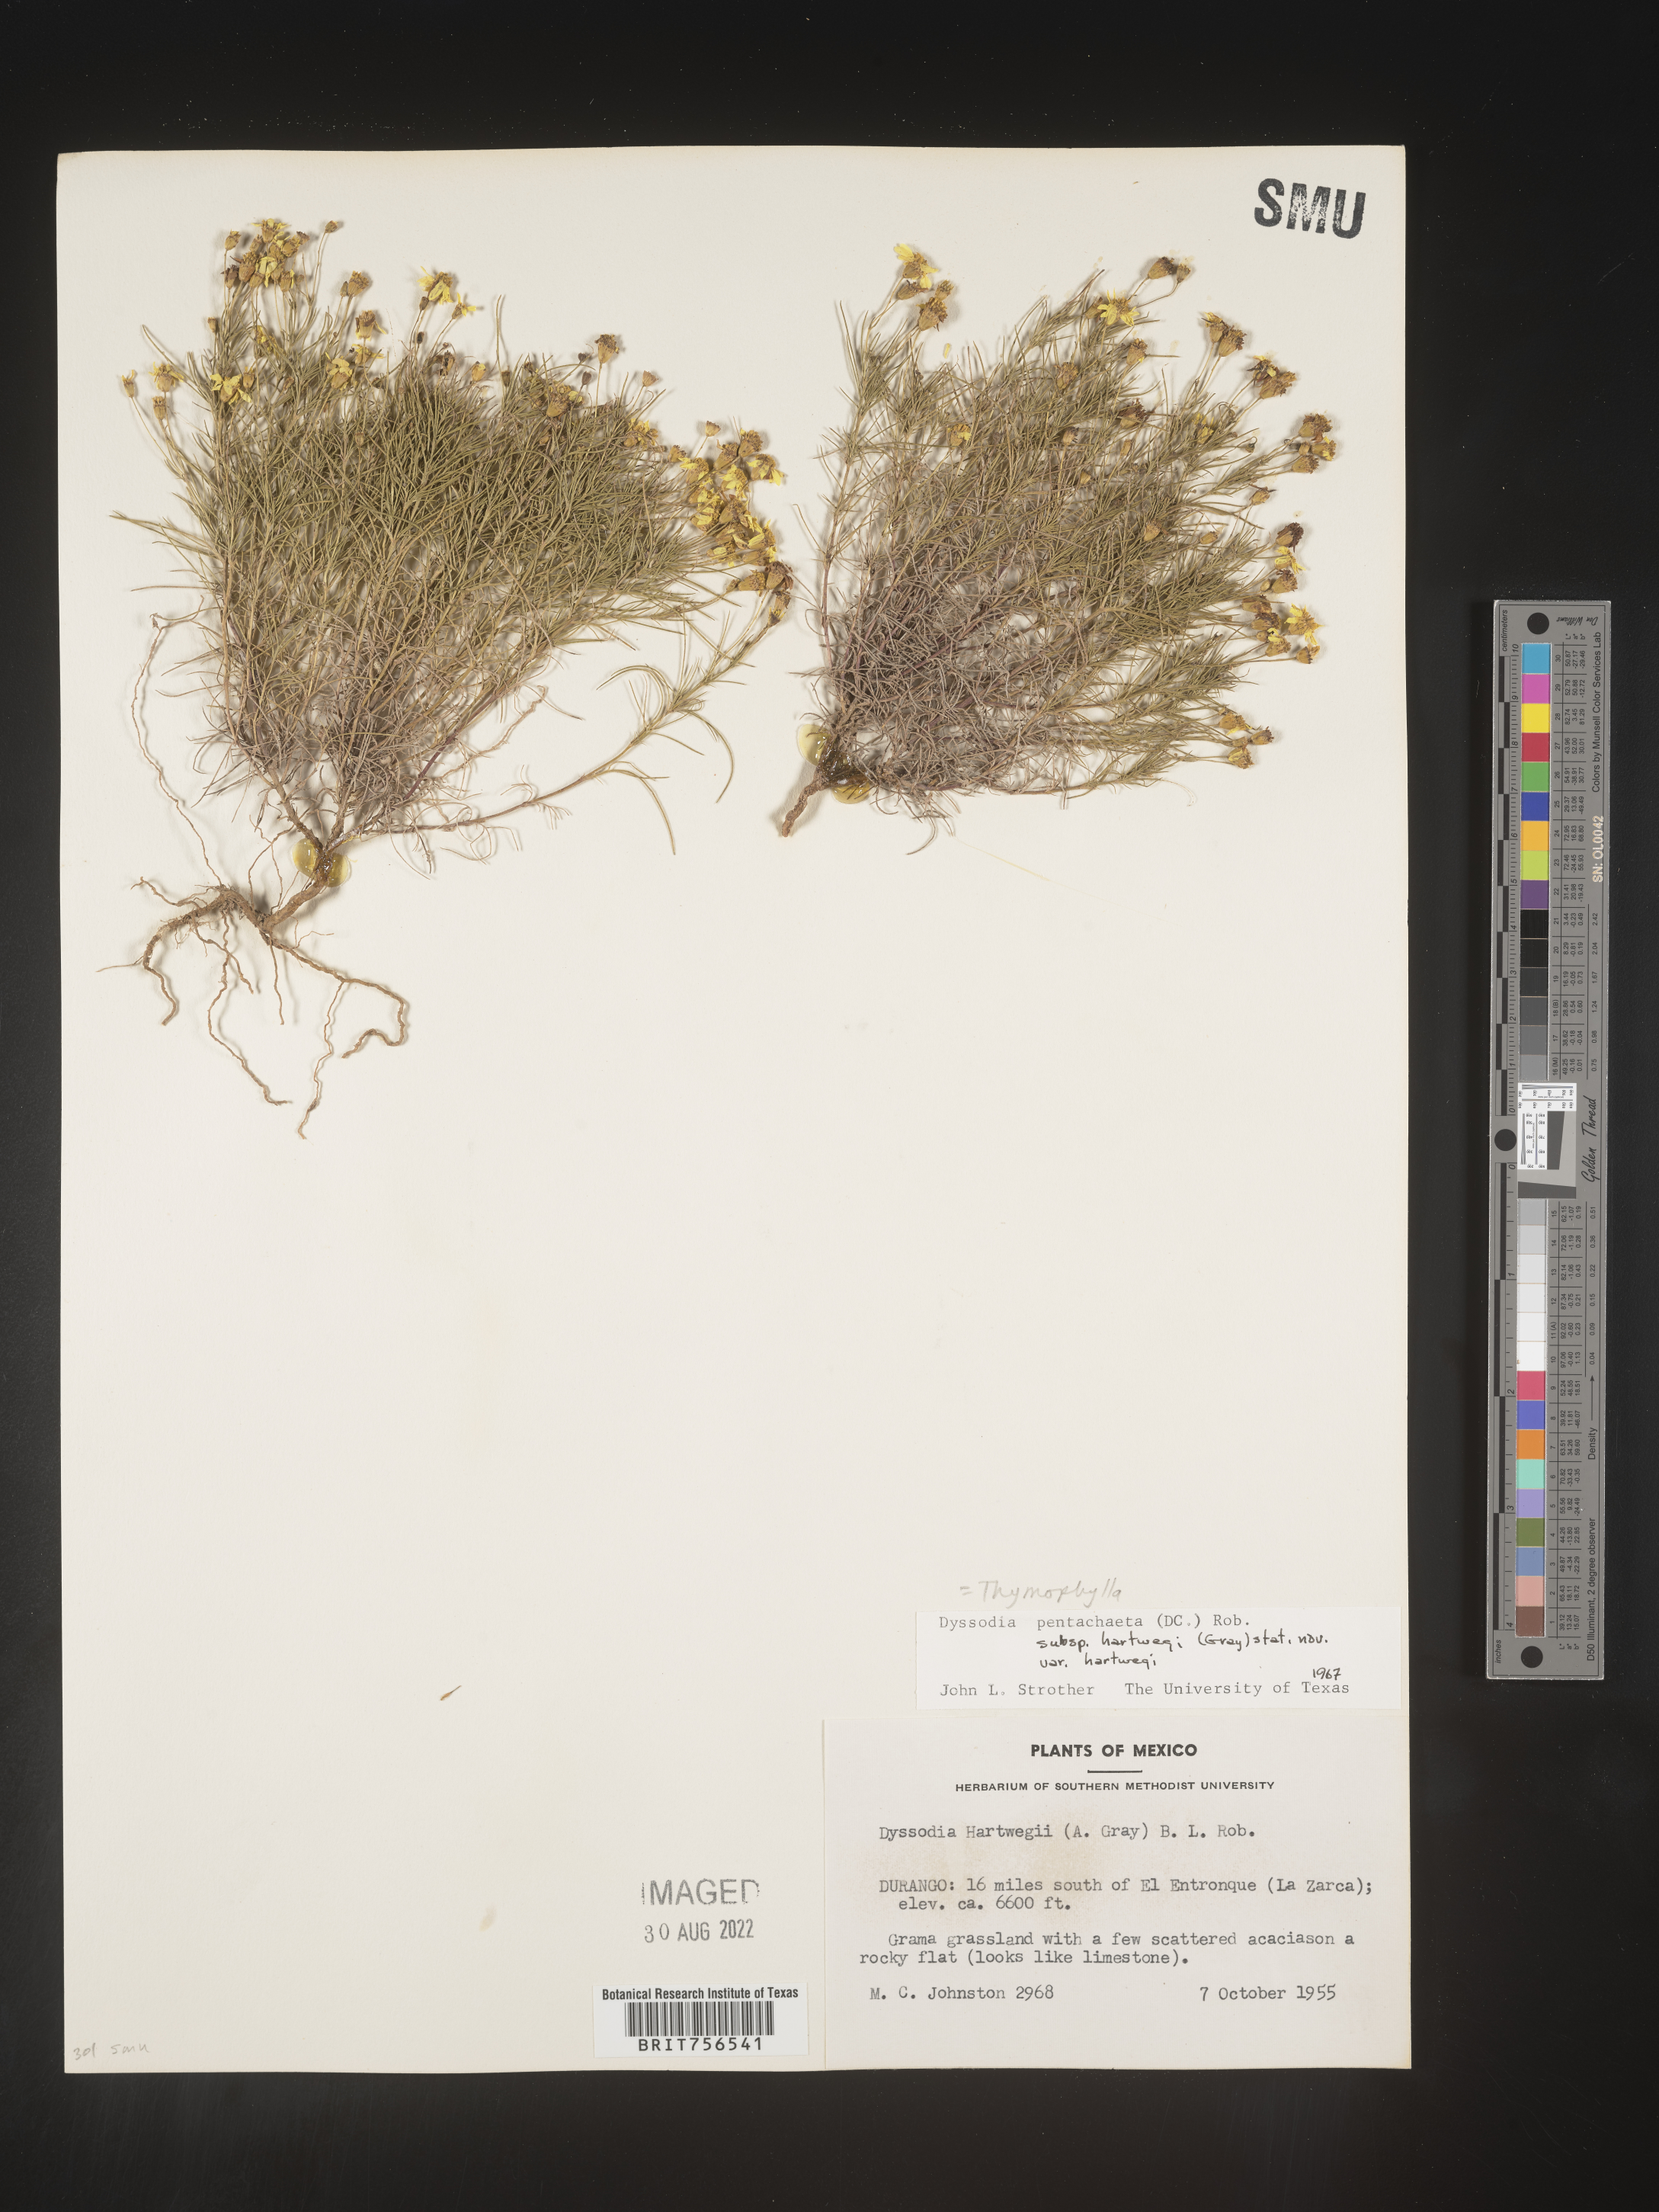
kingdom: Plantae
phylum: Tracheophyta
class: Magnoliopsida
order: Asterales
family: Asteraceae
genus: Thymophylla
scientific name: Thymophylla pentachaeta
